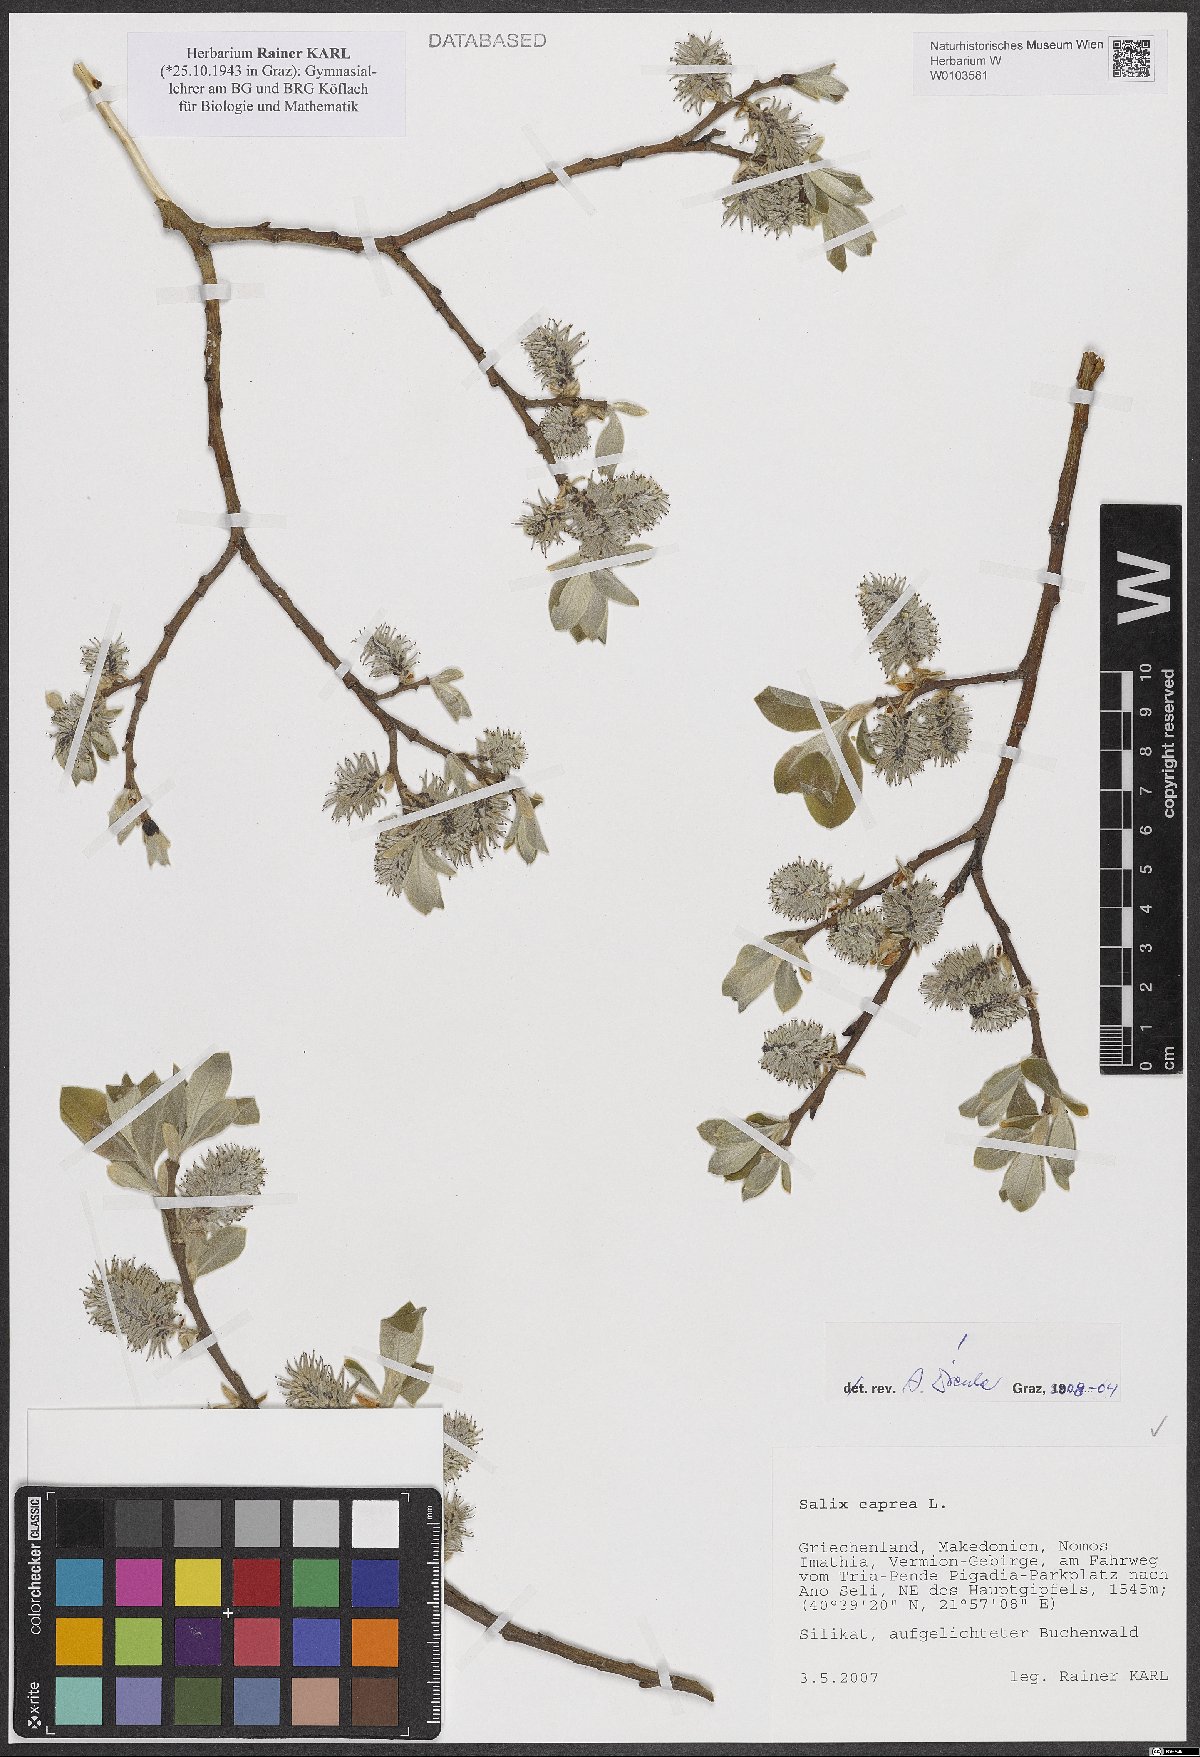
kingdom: Plantae
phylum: Tracheophyta
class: Magnoliopsida
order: Malpighiales
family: Salicaceae
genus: Salix
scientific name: Salix caprea
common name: Goat willow
